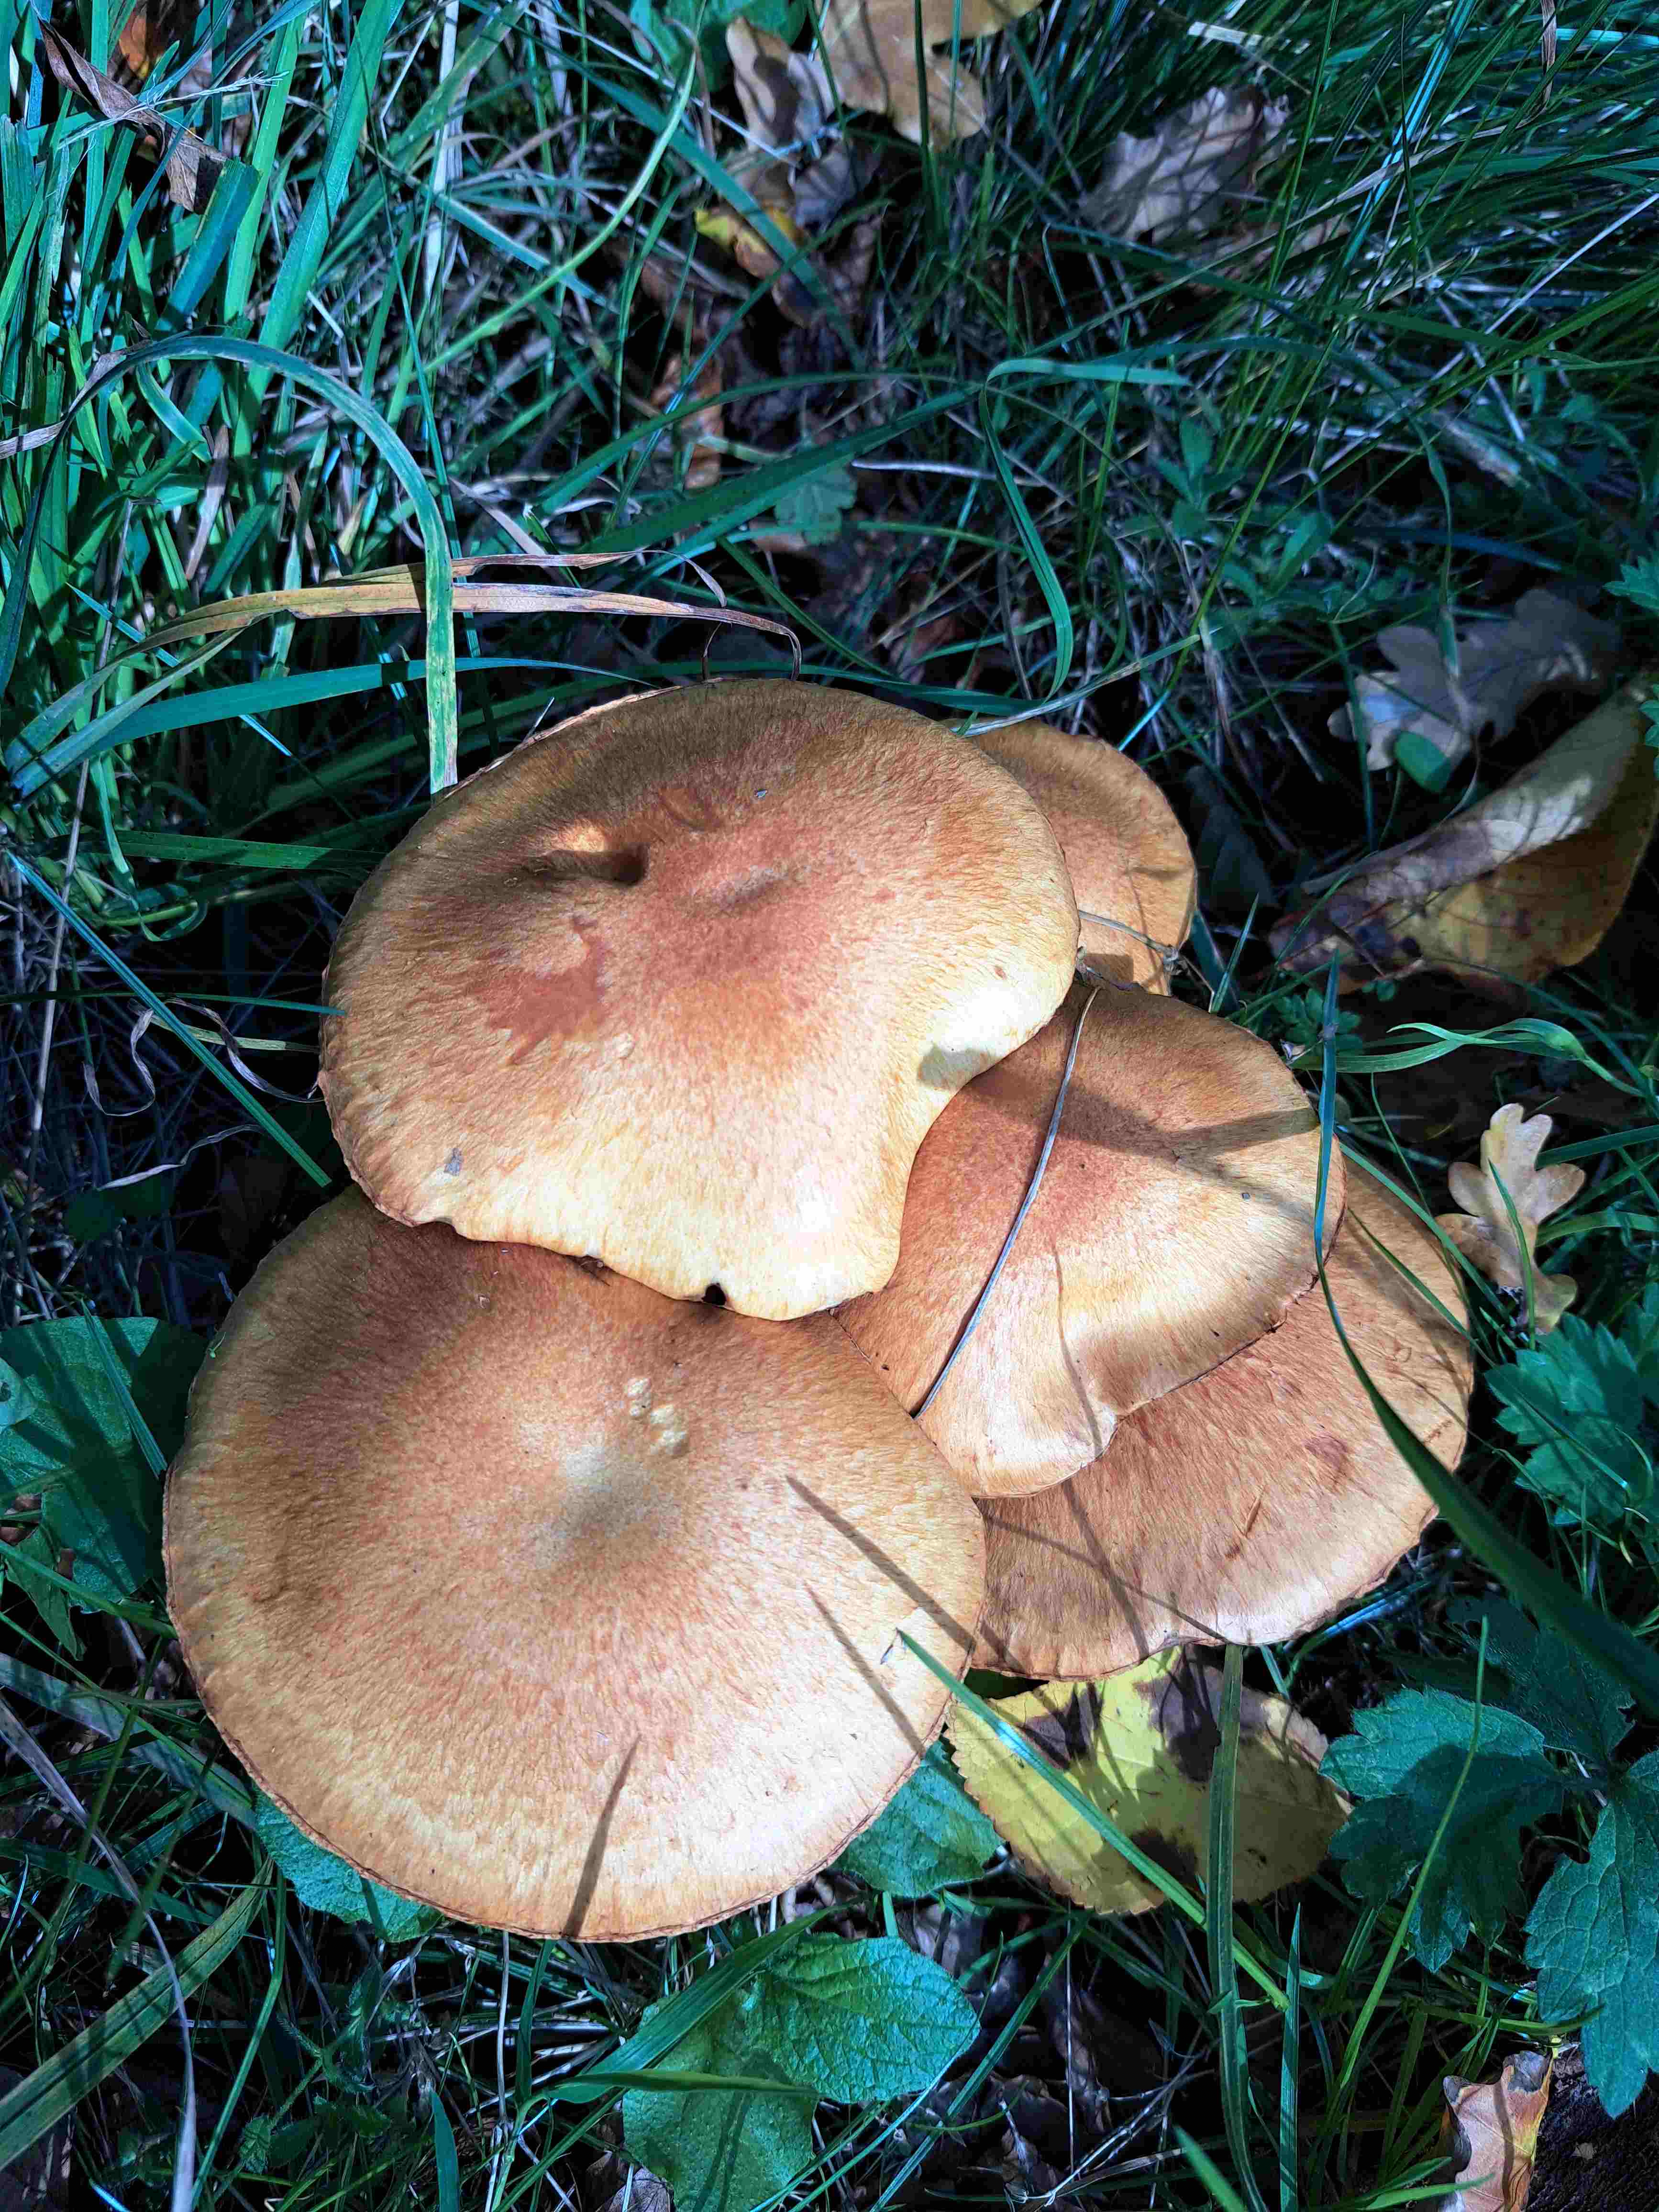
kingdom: Fungi
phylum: Basidiomycota
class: Agaricomycetes
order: Agaricales
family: Hymenogastraceae
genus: Gymnopilus
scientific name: Gymnopilus spectabilis
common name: fibret flammehat
